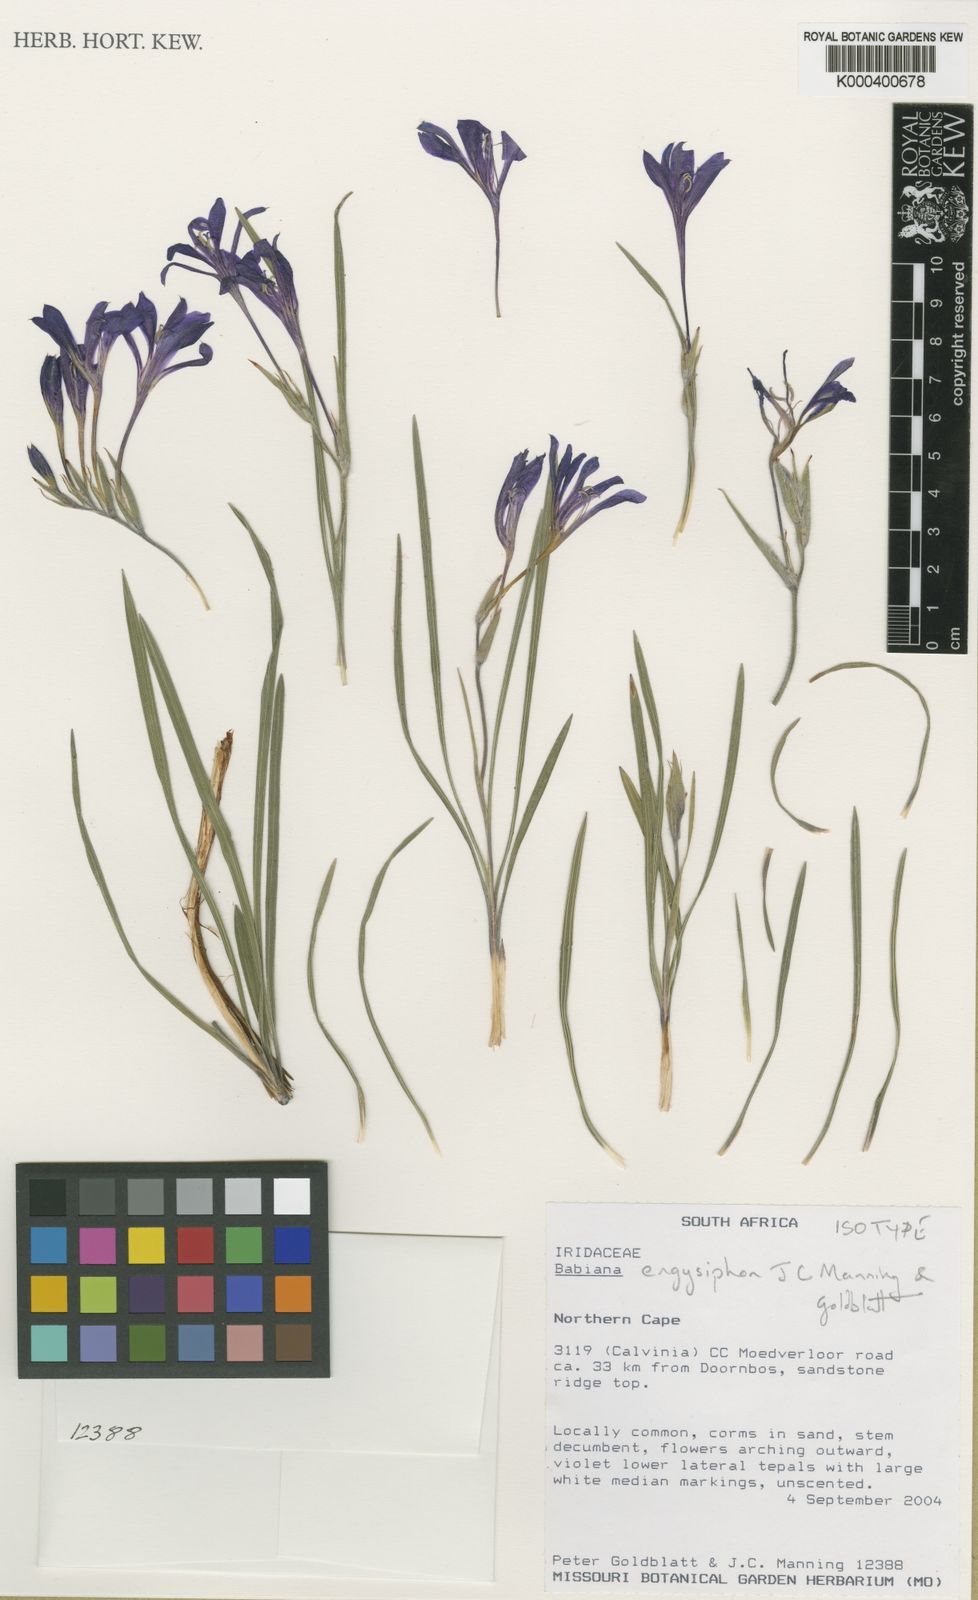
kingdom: Plantae
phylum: Tracheophyta
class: Liliopsida
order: Asparagales
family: Iridaceae
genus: Babiana
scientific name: Babiana engysiphon
